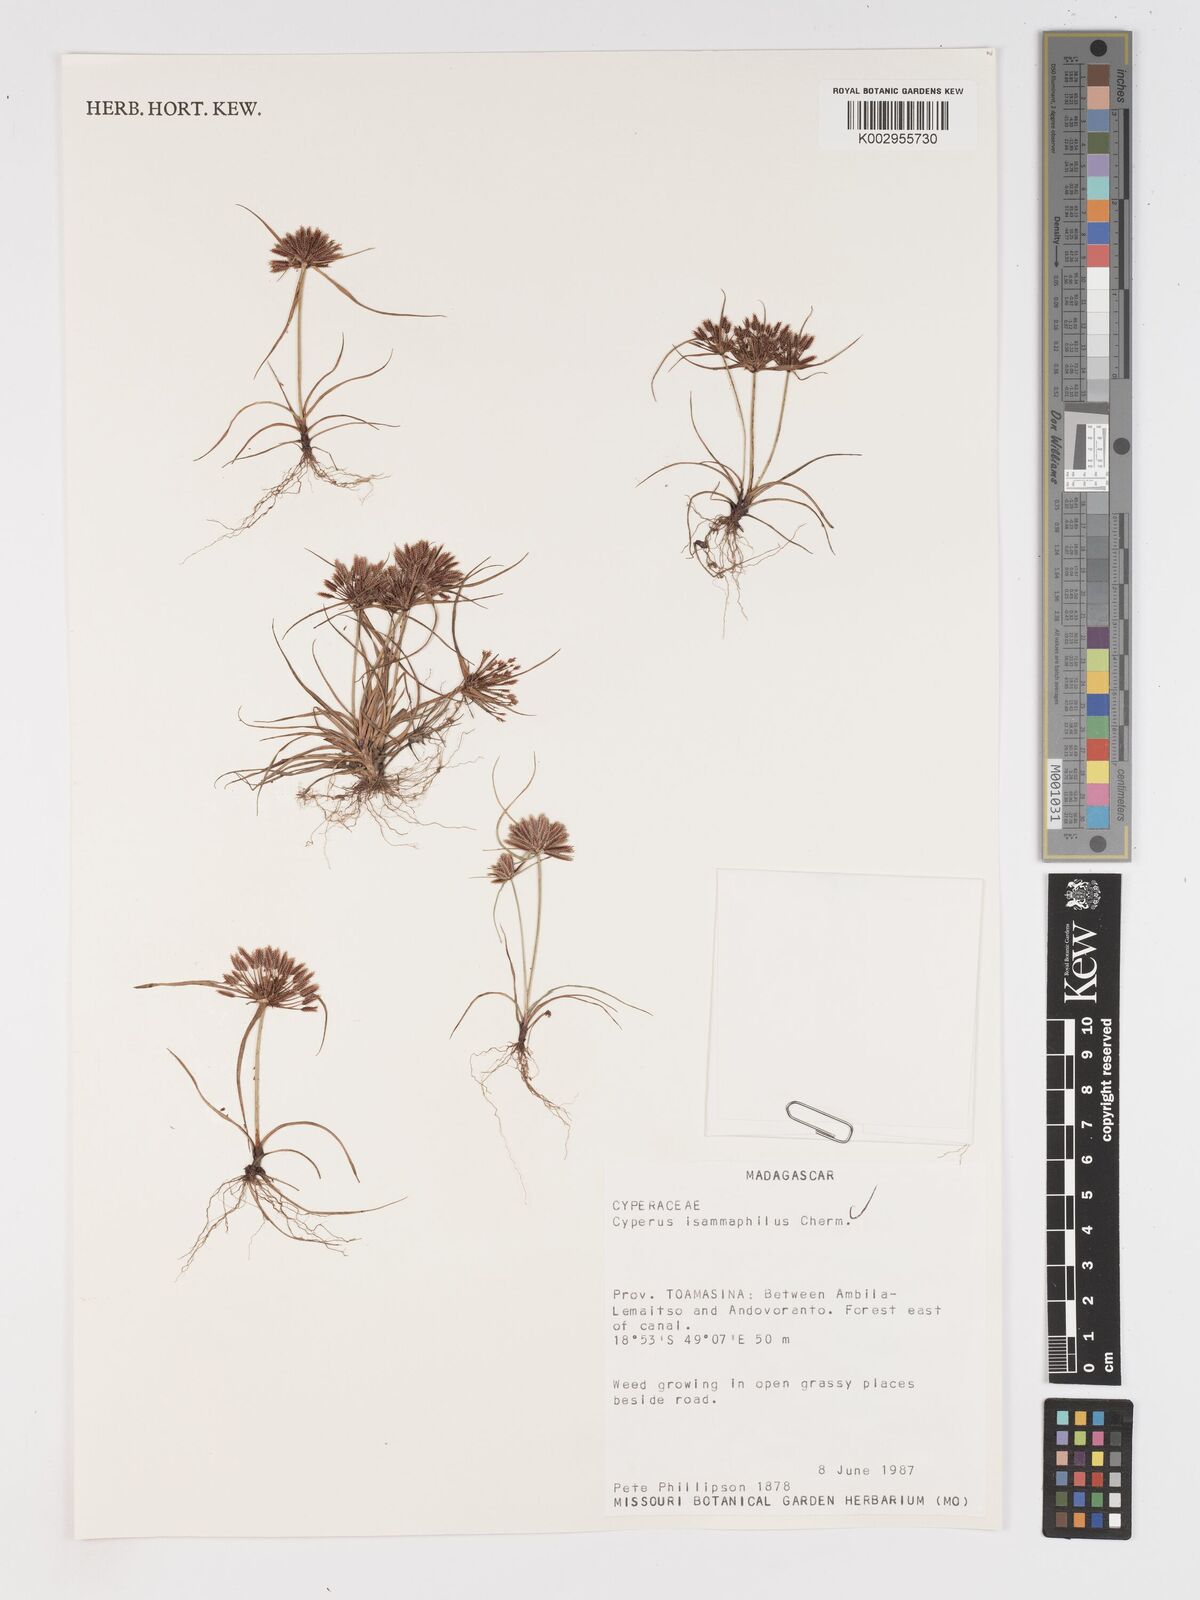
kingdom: Plantae
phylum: Tracheophyta
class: Liliopsida
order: Poales
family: Cyperaceae
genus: Cyperus
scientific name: Cyperus psammophilus
